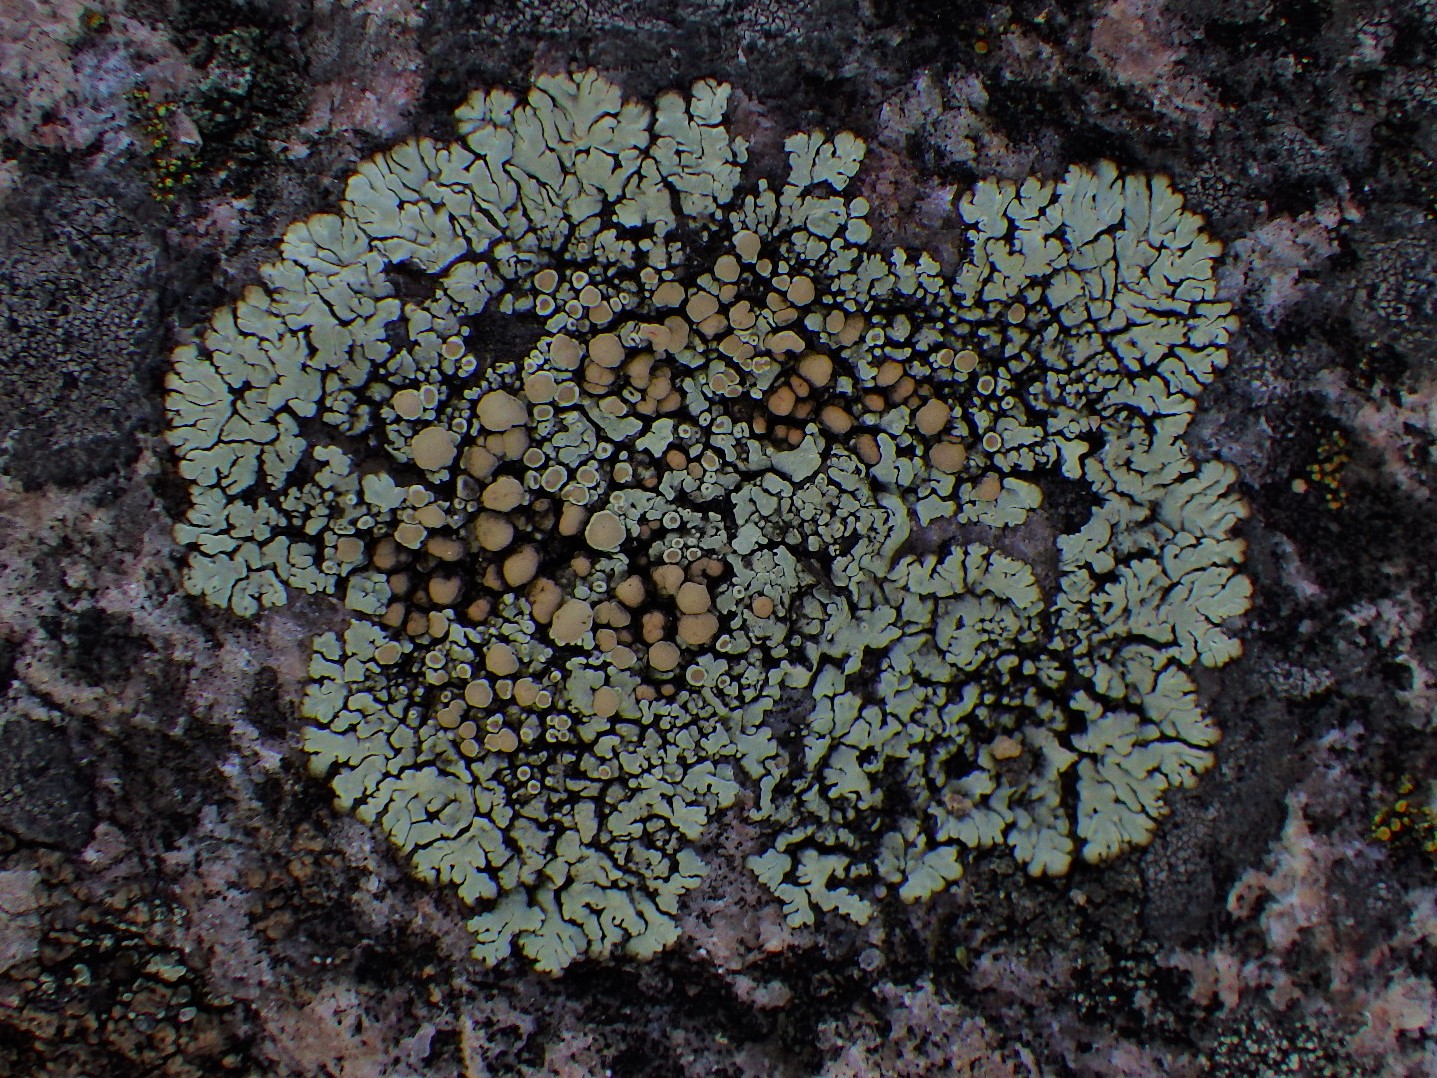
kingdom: Fungi
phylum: Ascomycota
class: Lecanoromycetes
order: Lecanorales
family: Lecanoraceae
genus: Protoparmeliopsis
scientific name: Protoparmeliopsis muralis
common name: randfliget kantskivelav
